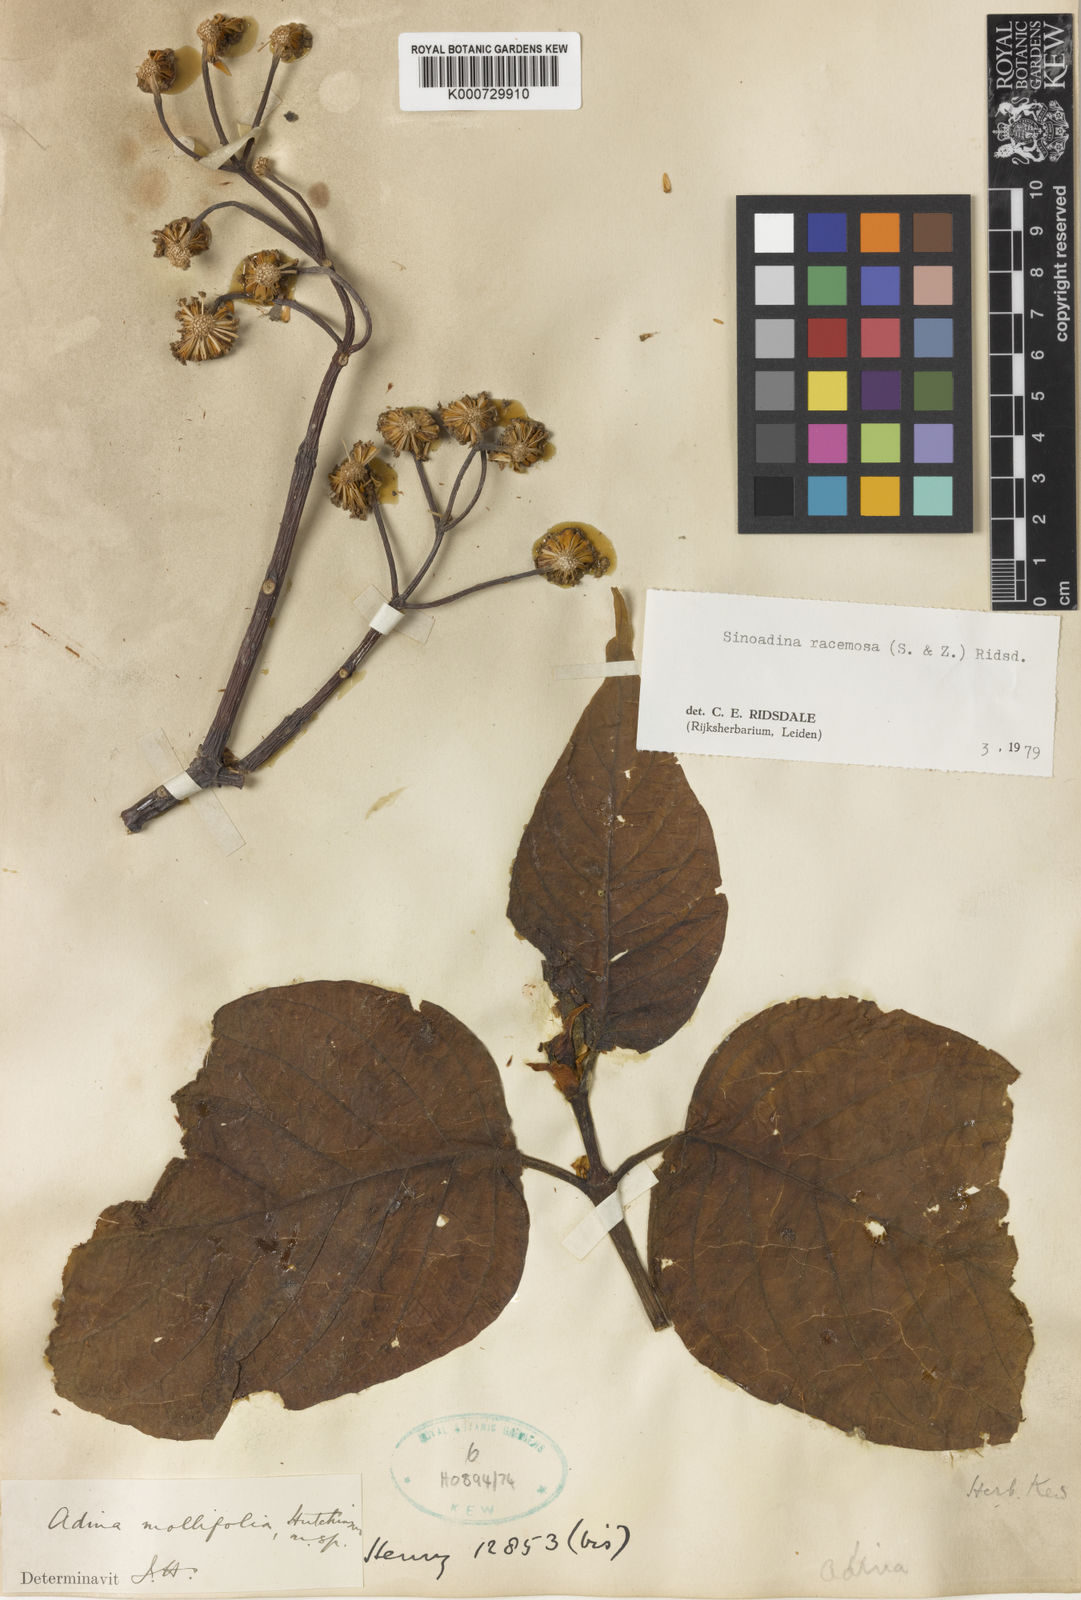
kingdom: Plantae
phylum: Tracheophyta
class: Magnoliopsida
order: Gentianales
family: Rubiaceae
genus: Adina
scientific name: Adina racemosa
